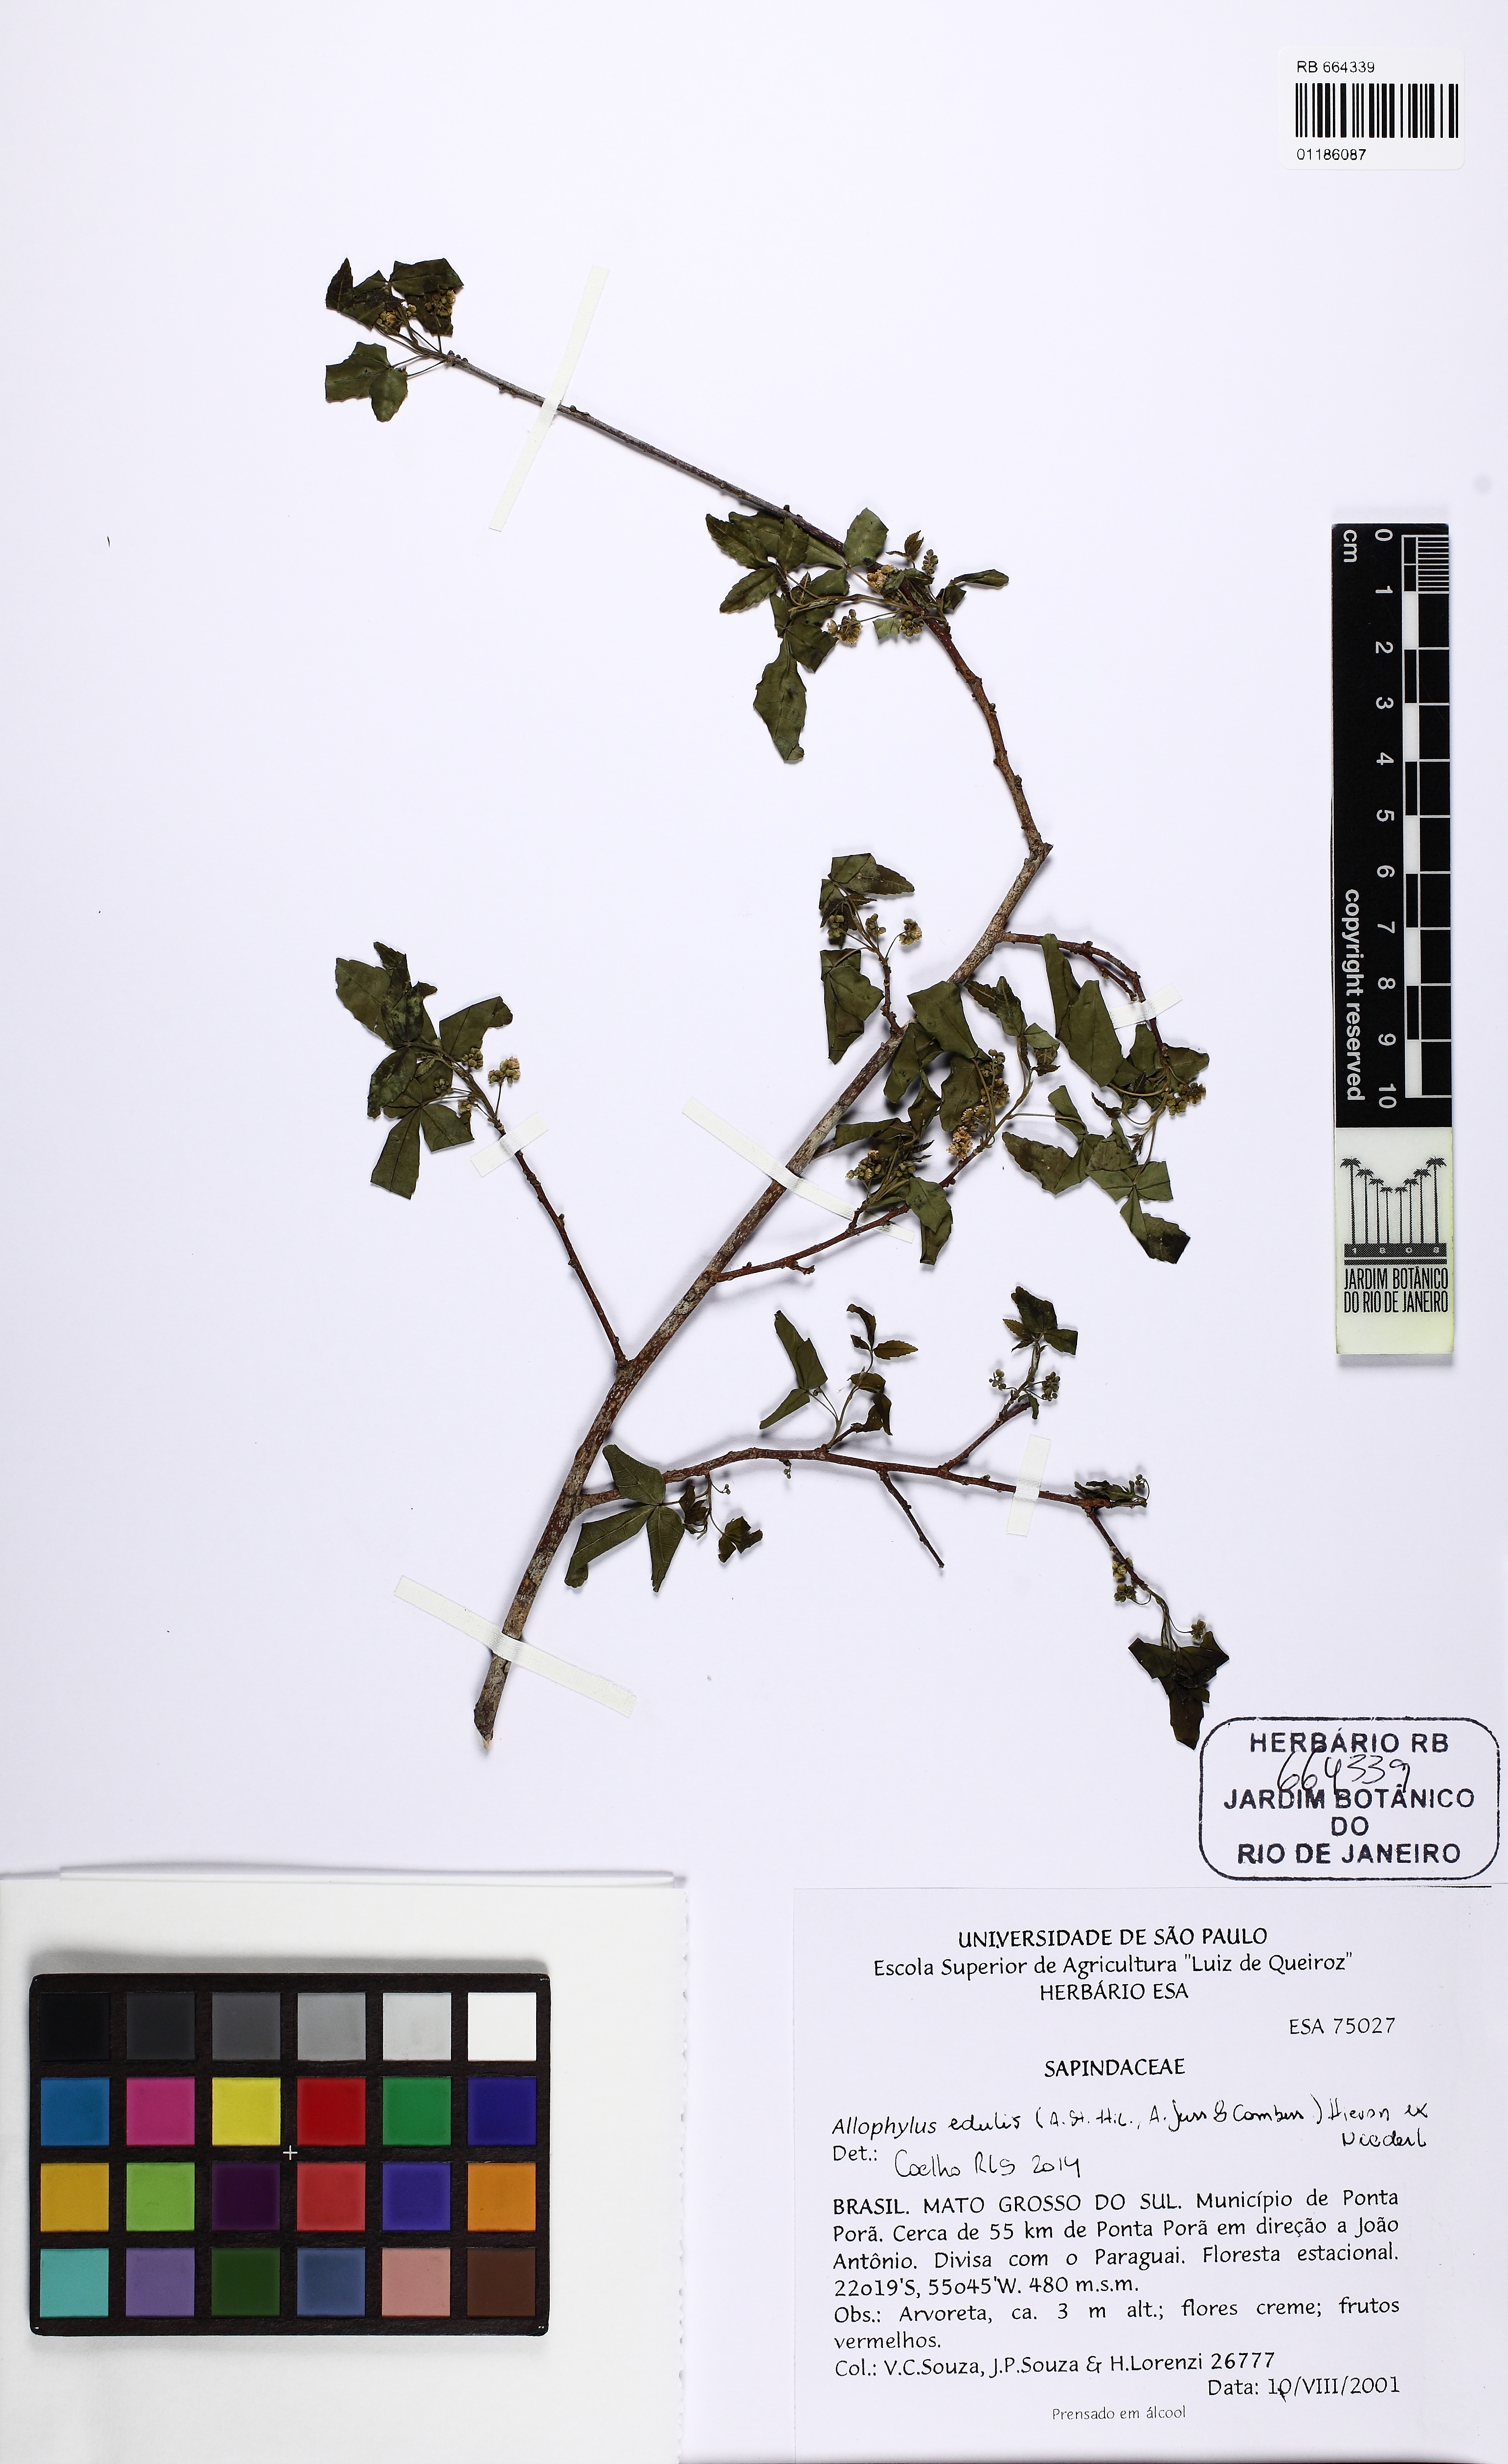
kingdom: Plantae
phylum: Tracheophyta
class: Magnoliopsida
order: Sapindales
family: Sapindaceae
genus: Allophylus
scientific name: Allophylus edulis
